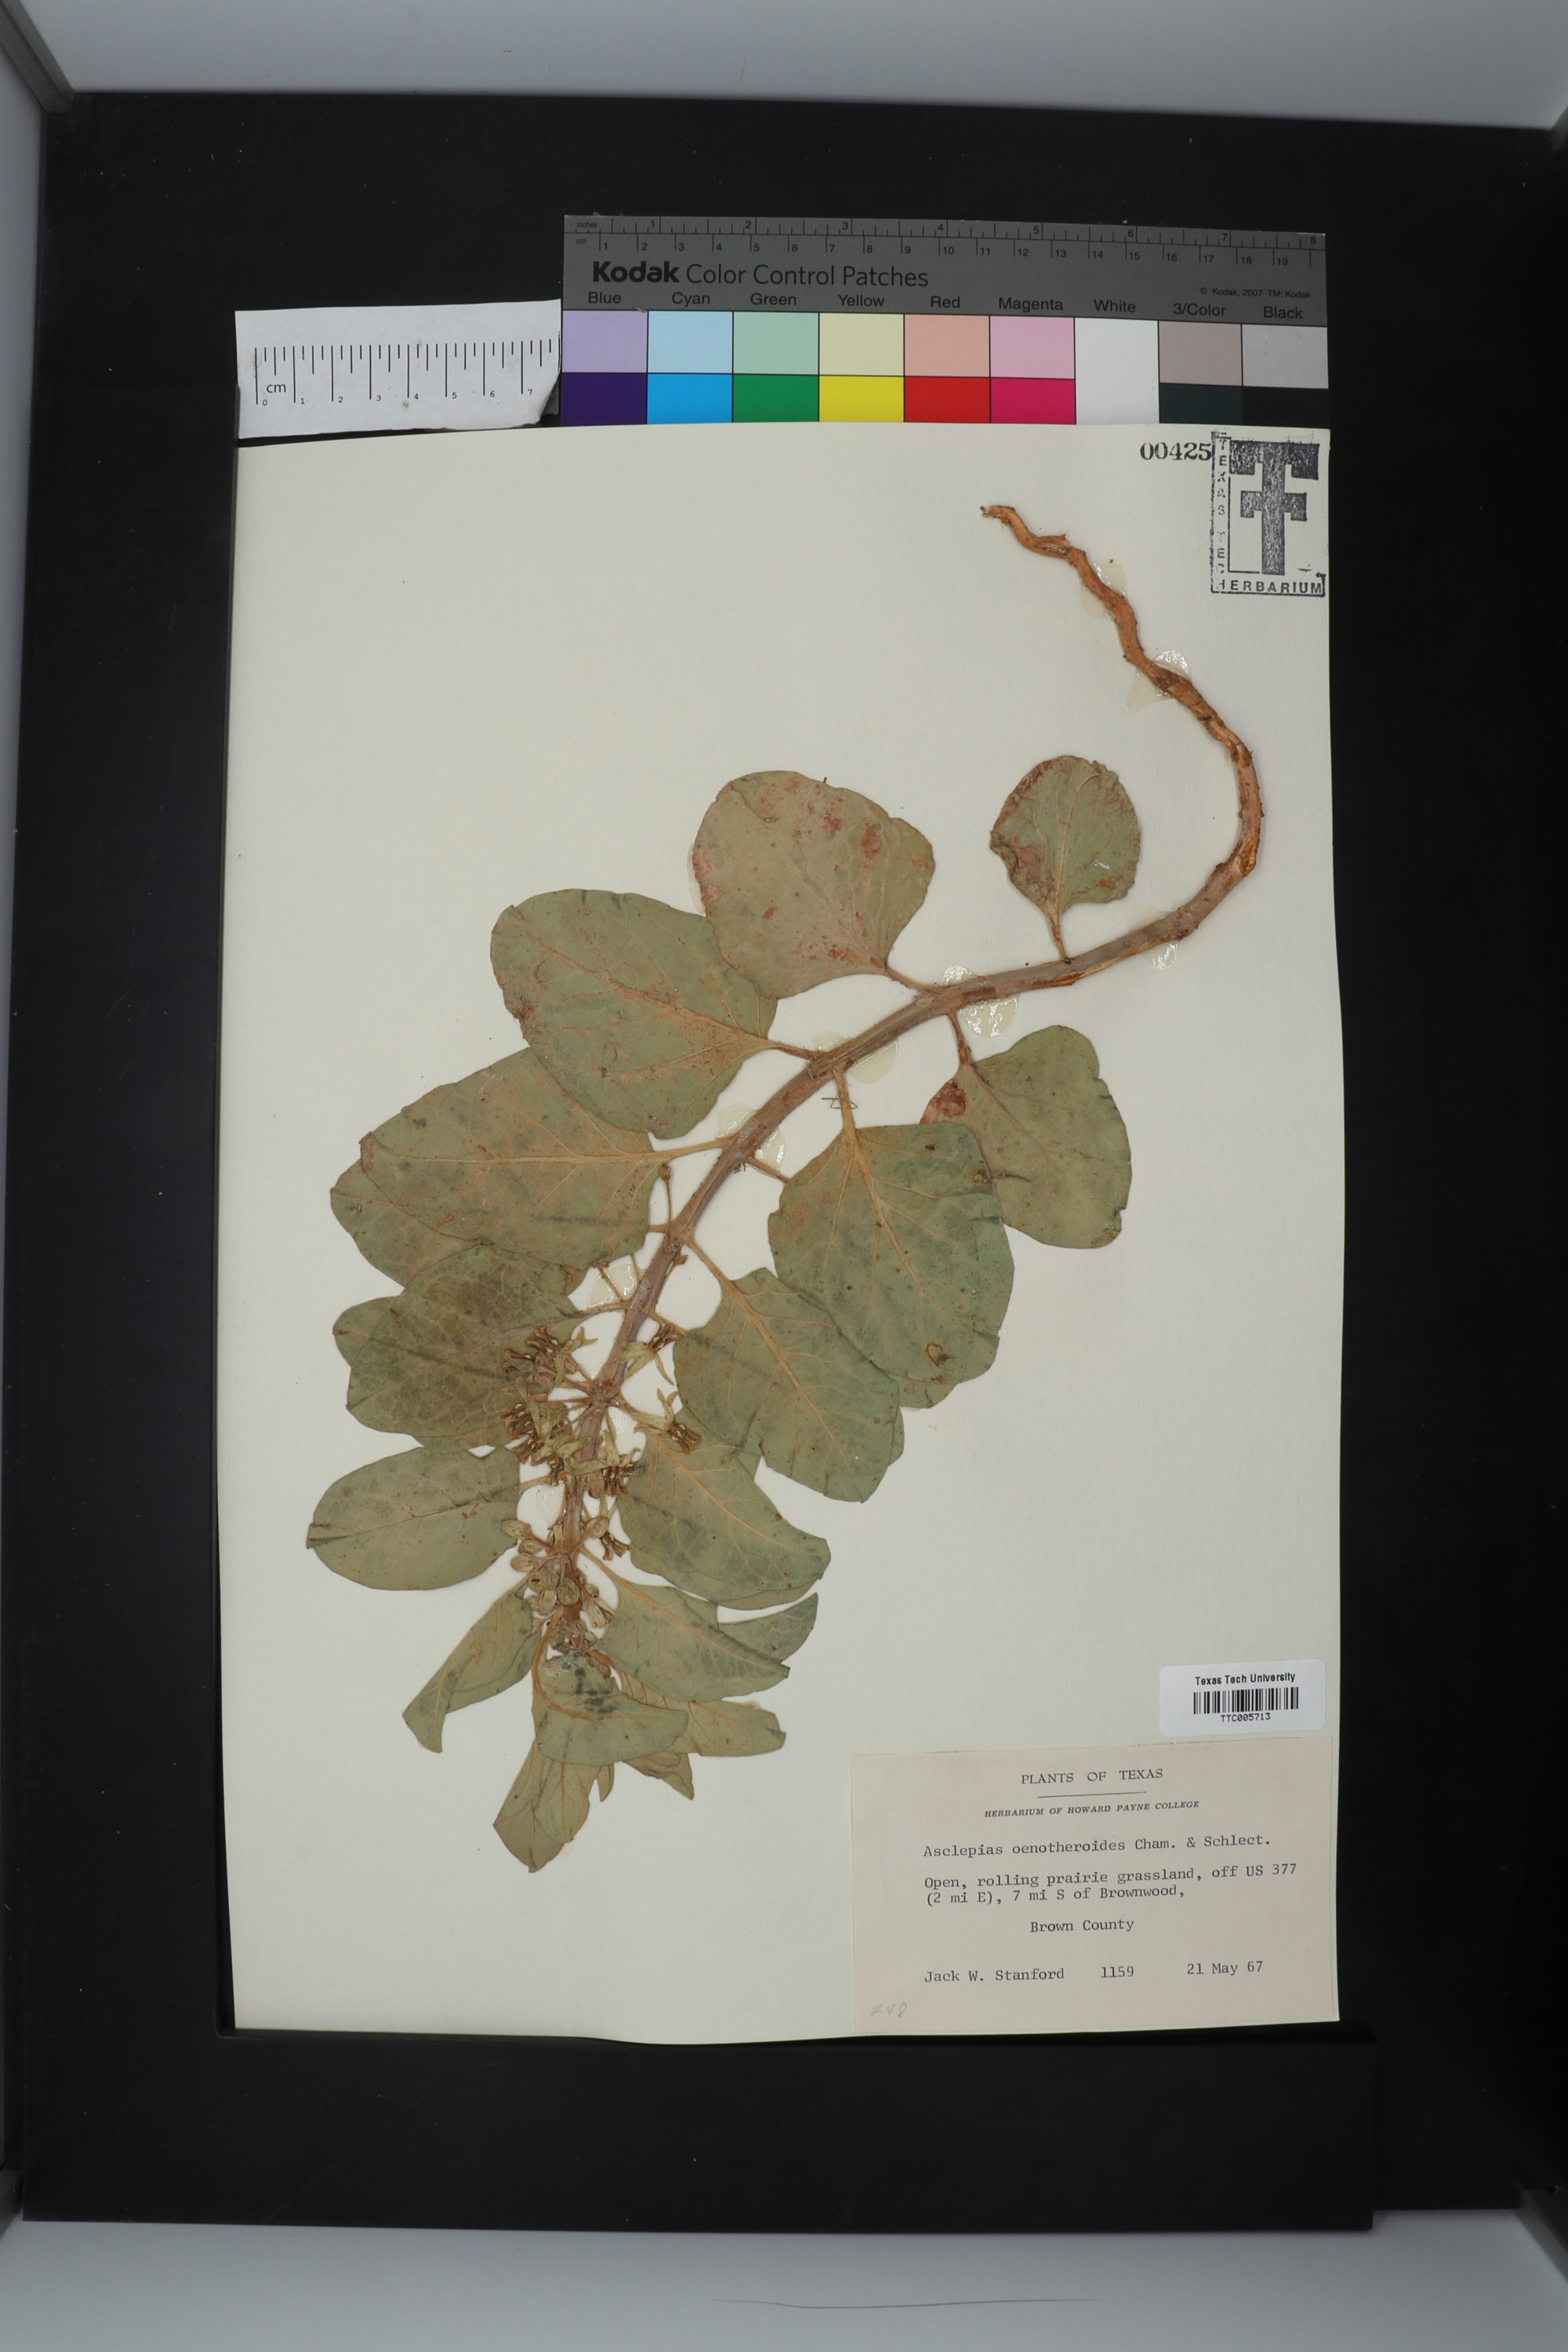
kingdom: Plantae
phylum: Tracheophyta
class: Magnoliopsida
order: Gentianales
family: Apocynaceae
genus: Asclepias
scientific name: Asclepias oenotheroides
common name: Zizotes milkweed
